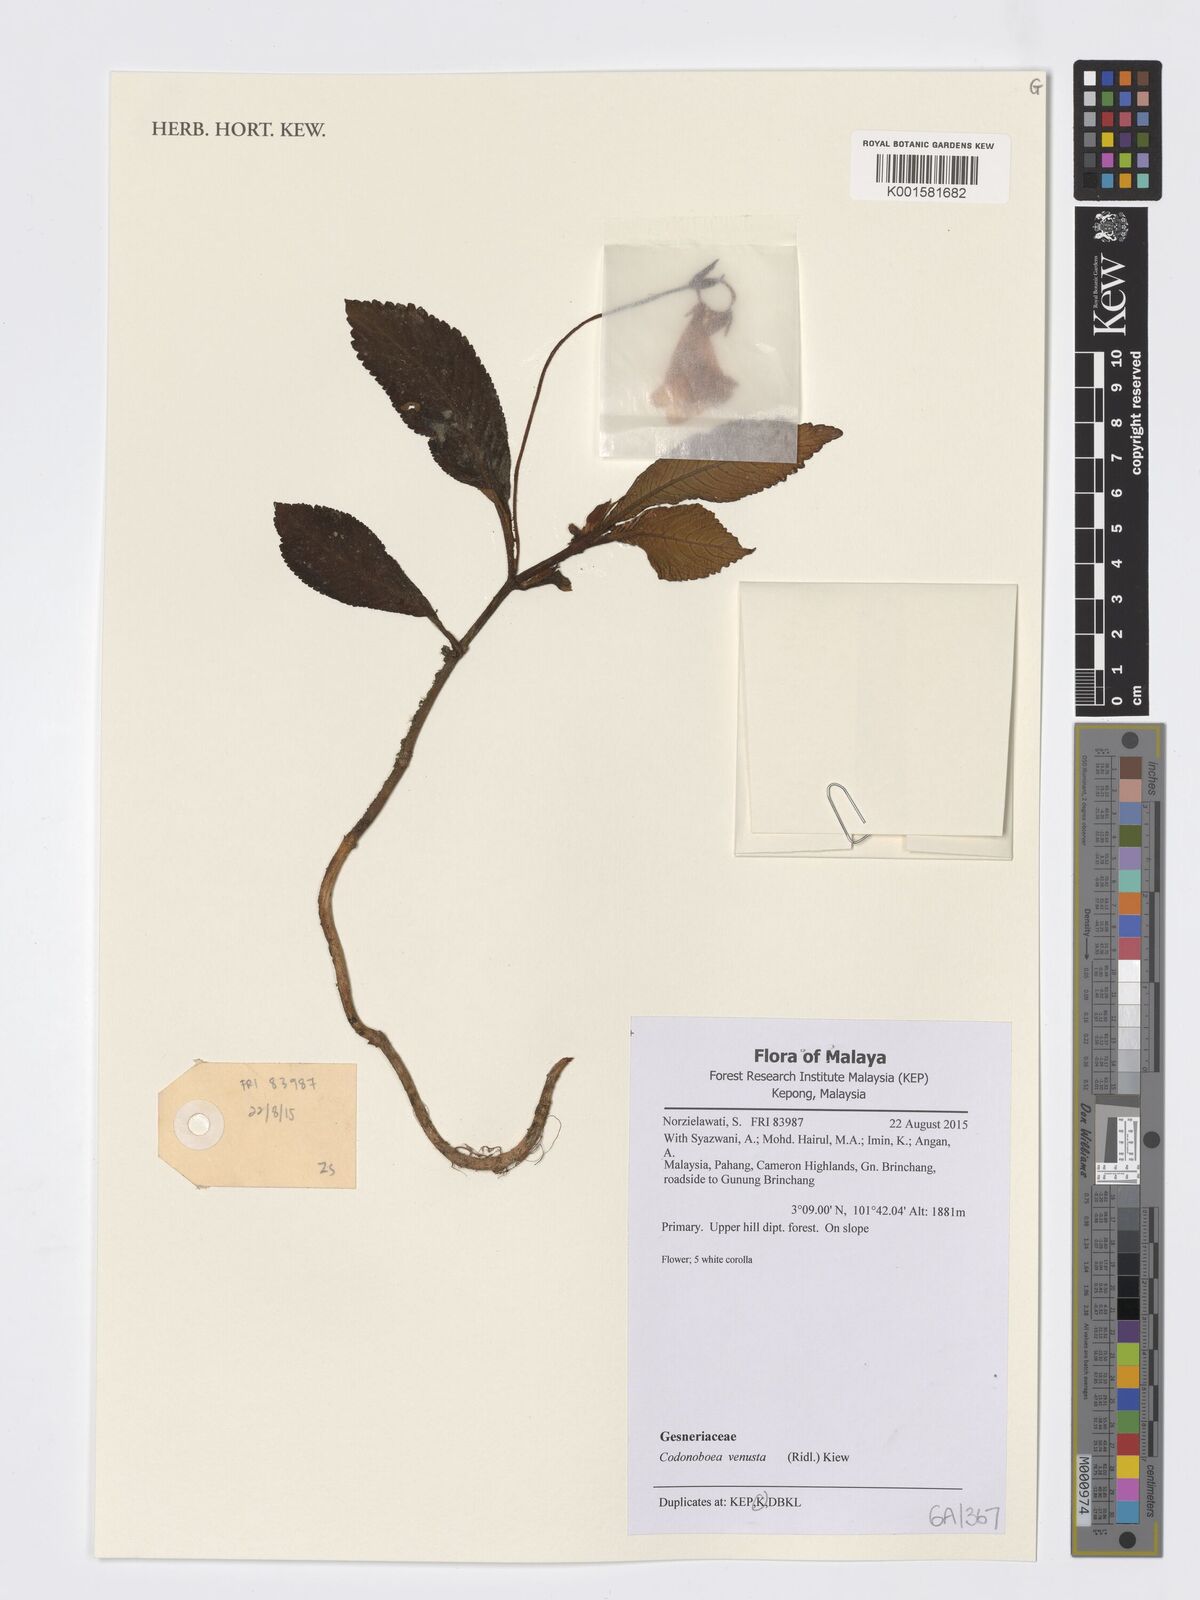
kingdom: Plantae
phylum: Tracheophyta
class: Magnoliopsida
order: Lamiales
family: Gesneriaceae
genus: Codonoboea
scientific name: Codonoboea venusta
